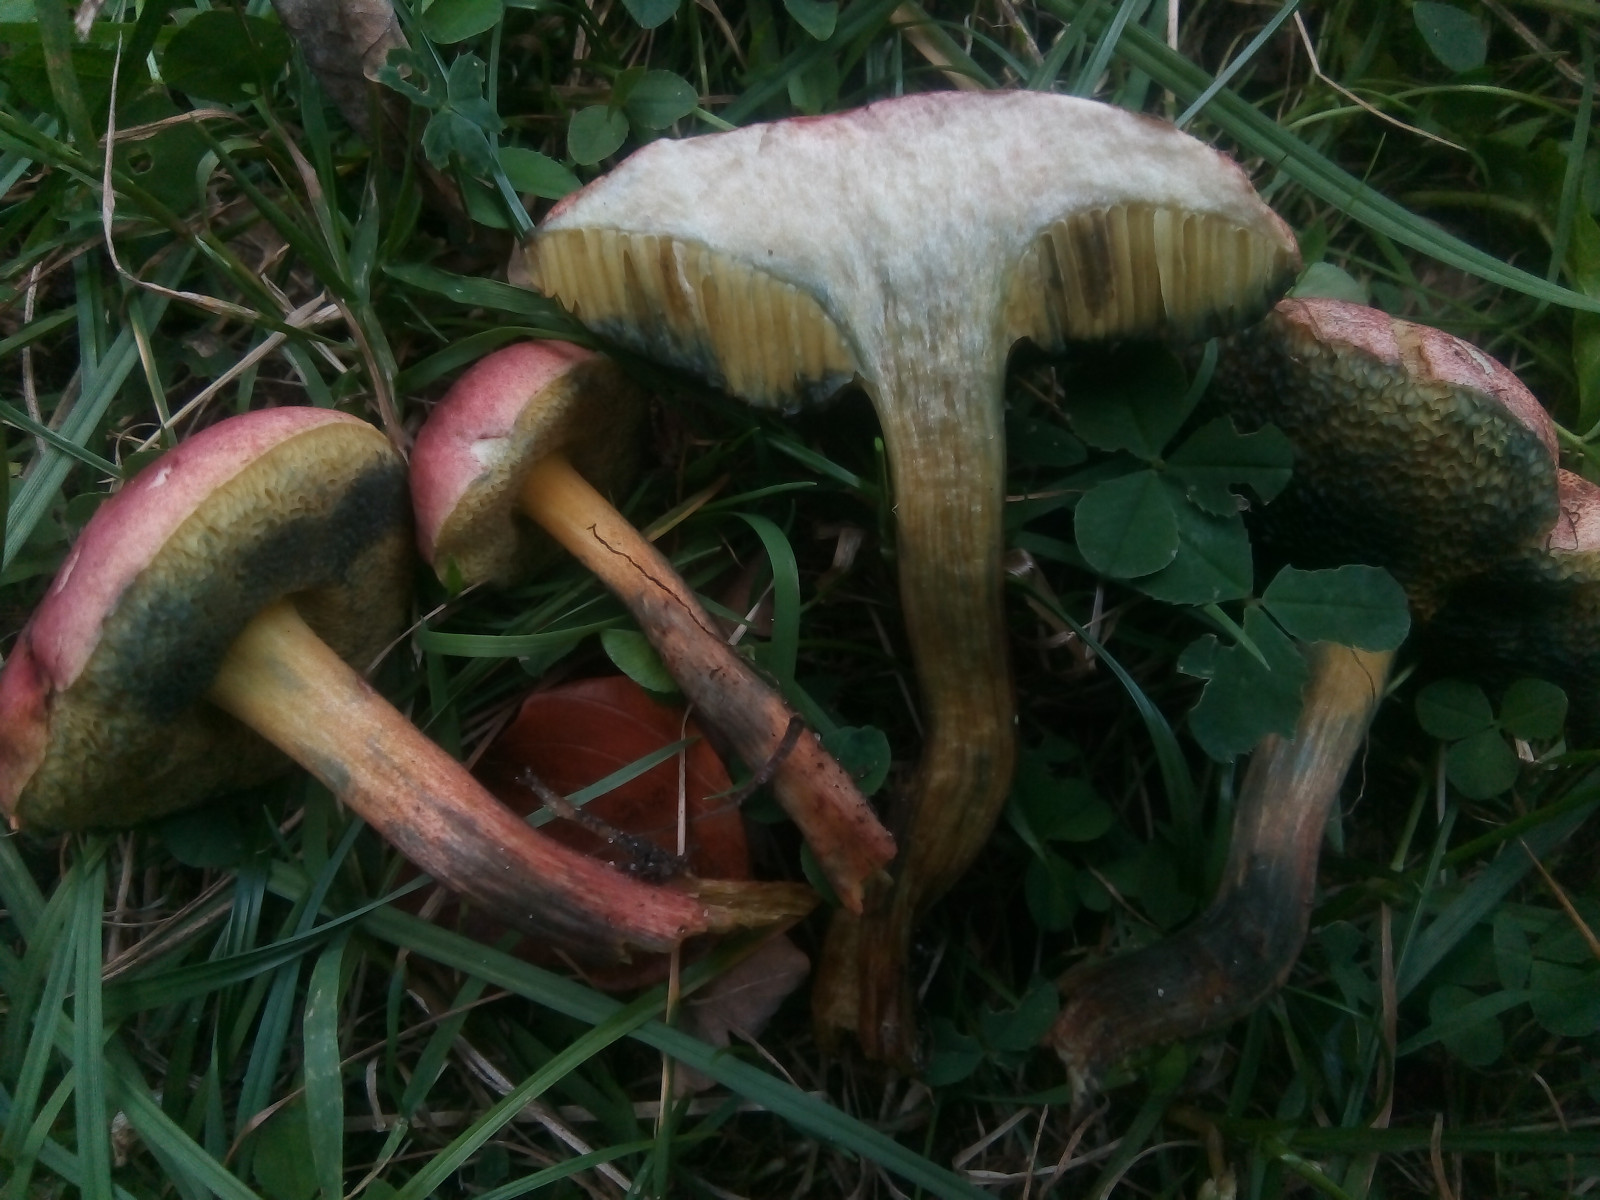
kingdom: Fungi
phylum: Basidiomycota
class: Agaricomycetes
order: Boletales
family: Boletaceae
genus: Hortiboletus
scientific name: Hortiboletus rubellus
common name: blodrød rørhat
